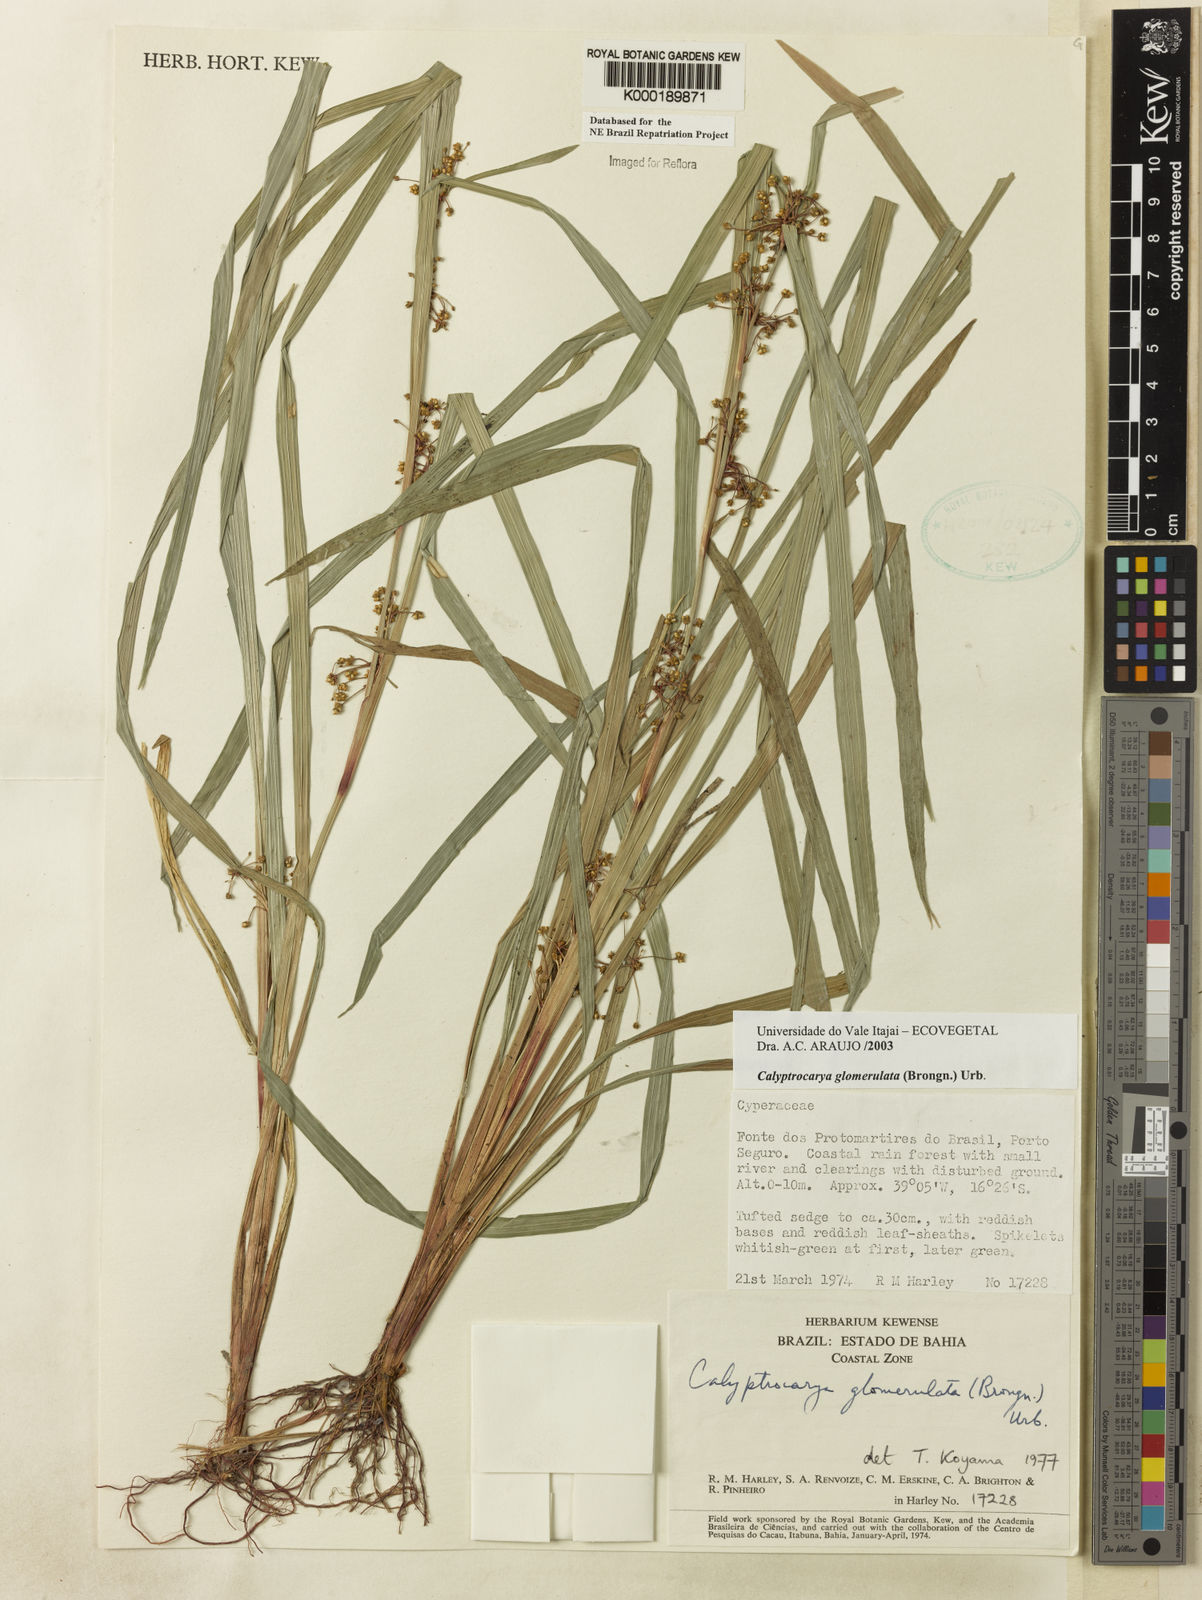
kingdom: Plantae
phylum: Tracheophyta
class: Liliopsida
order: Poales
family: Cyperaceae
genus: Calyptrocarya
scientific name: Calyptrocarya glomerulata
